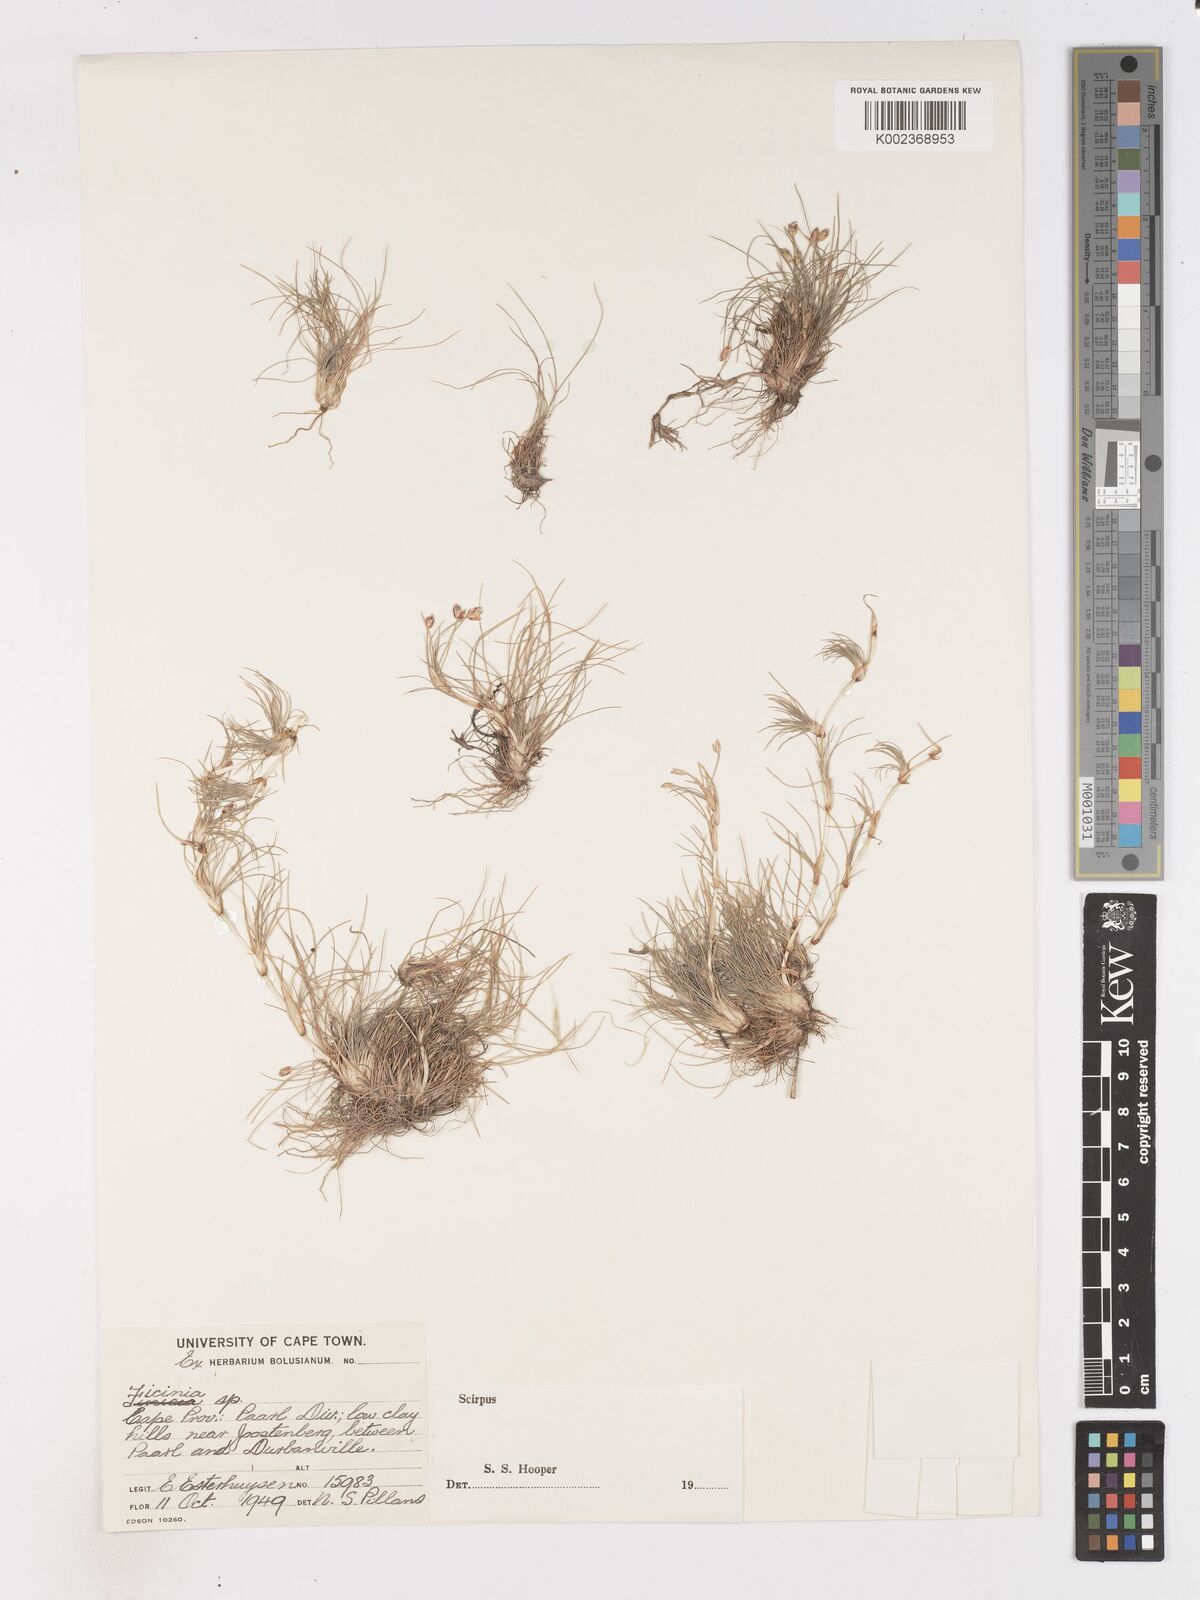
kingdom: Plantae
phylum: Tracheophyta
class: Liliopsida
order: Poales
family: Cyperaceae
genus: Isolepis
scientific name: Isolepis rubicunda
